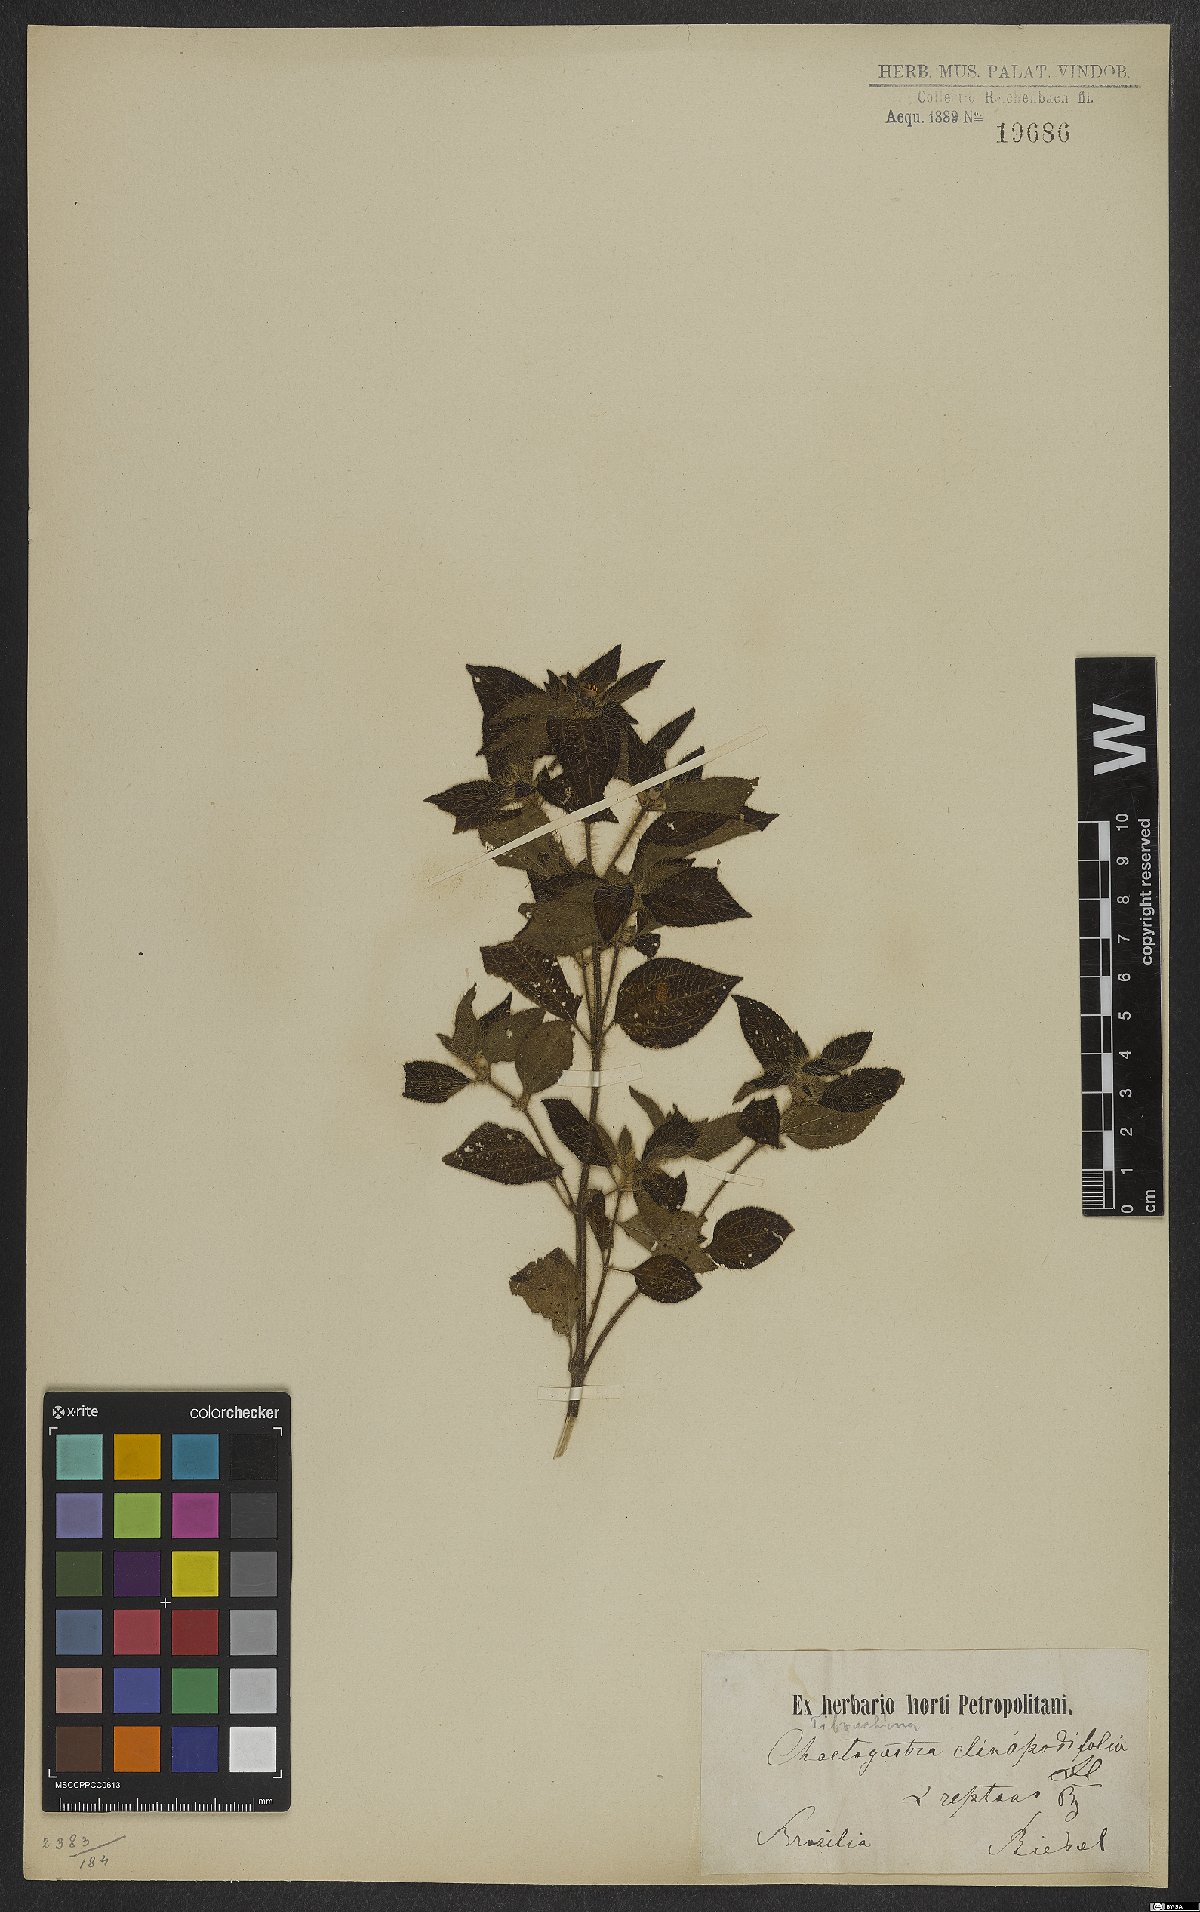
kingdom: Plantae
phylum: Tracheophyta
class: Magnoliopsida
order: Myrtales
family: Melastomataceae
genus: Chaetogastra
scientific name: Chaetogastra clinopodifolia
